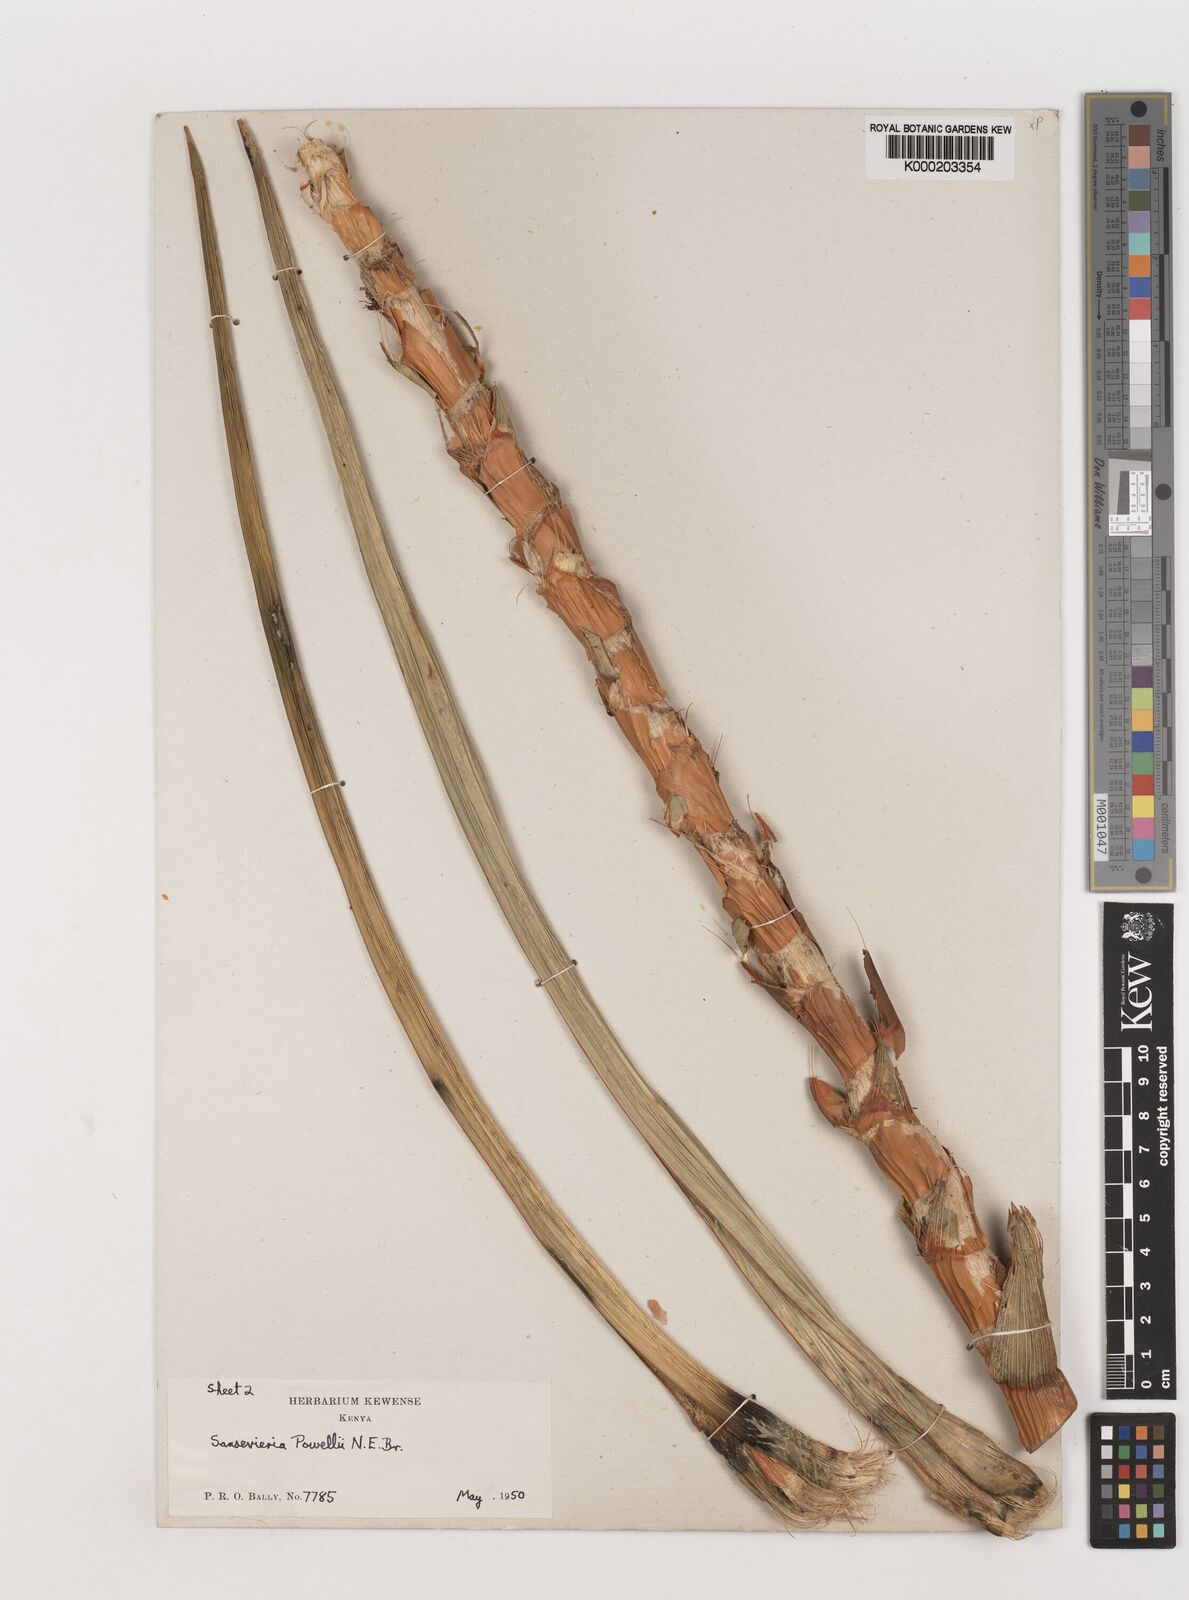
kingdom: Plantae
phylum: Tracheophyta
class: Liliopsida
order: Asparagales
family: Asparagaceae
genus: Dracaena
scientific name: Dracaena powellii
